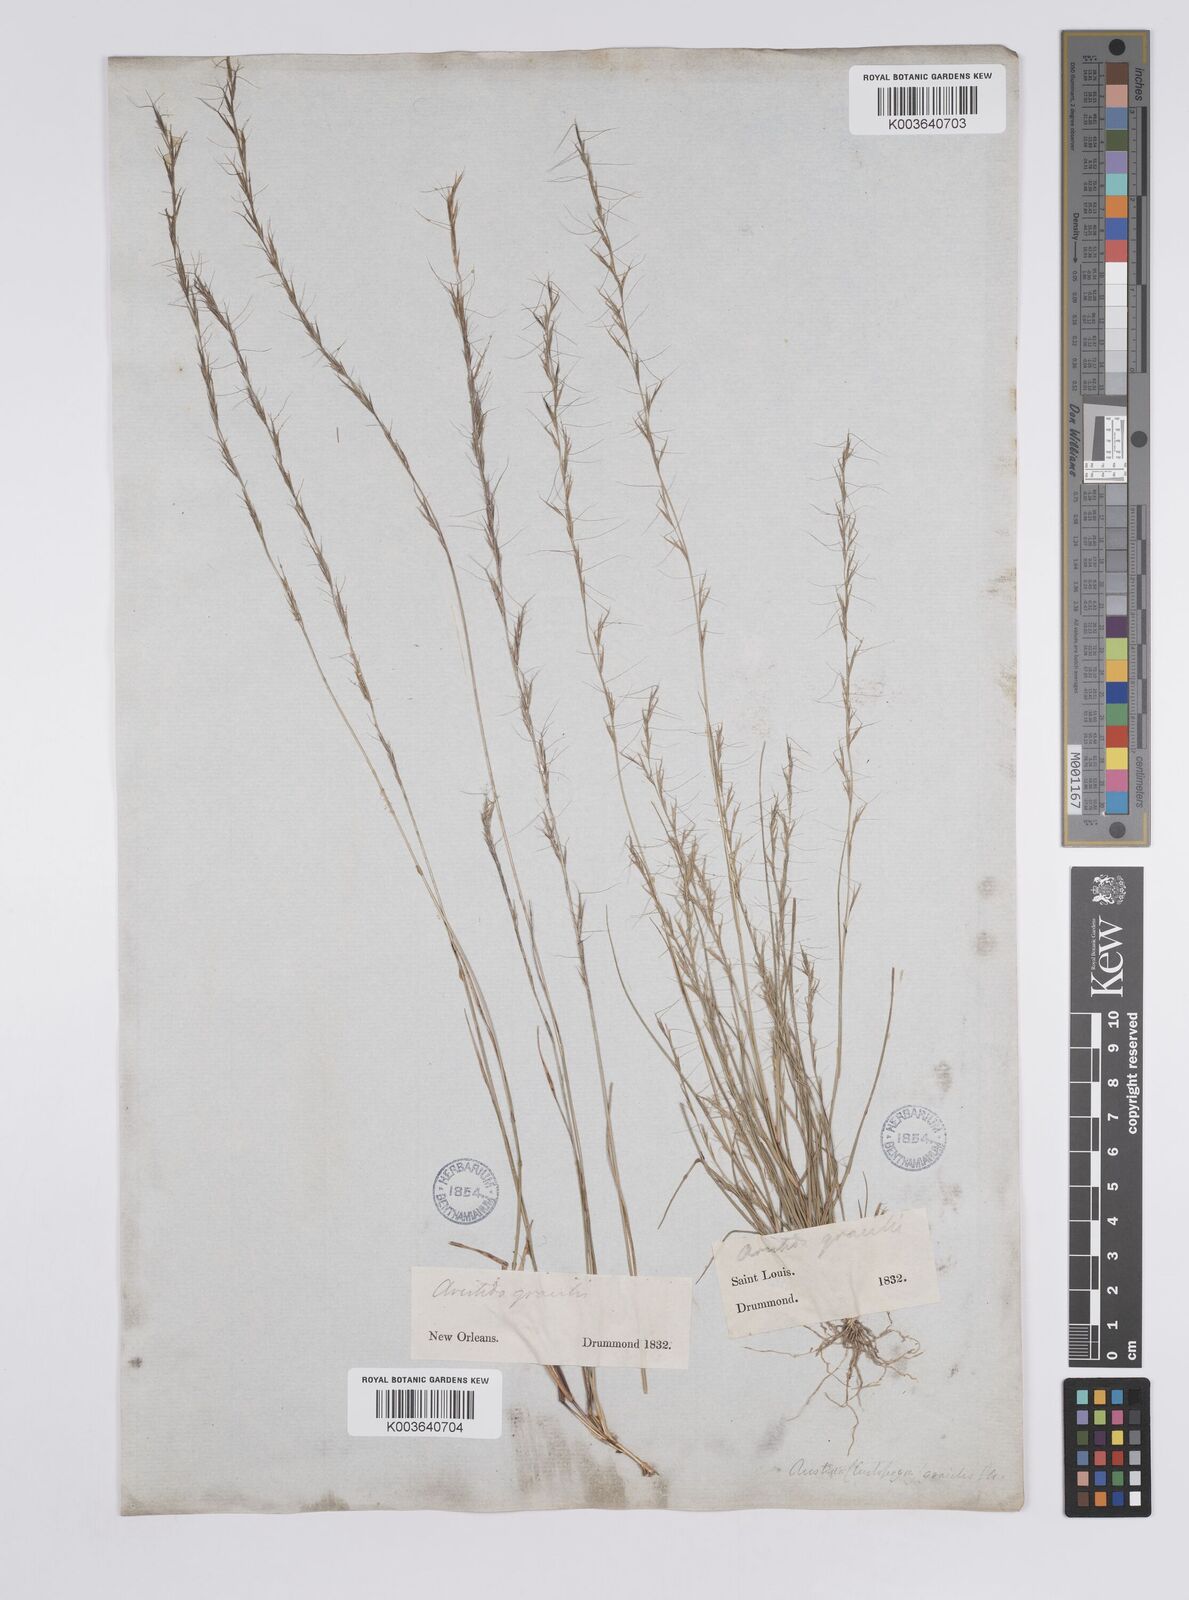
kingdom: Plantae
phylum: Tracheophyta
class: Liliopsida
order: Poales
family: Poaceae
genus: Aristida
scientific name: Aristida longespica
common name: Long-spiked triple-awned grass
